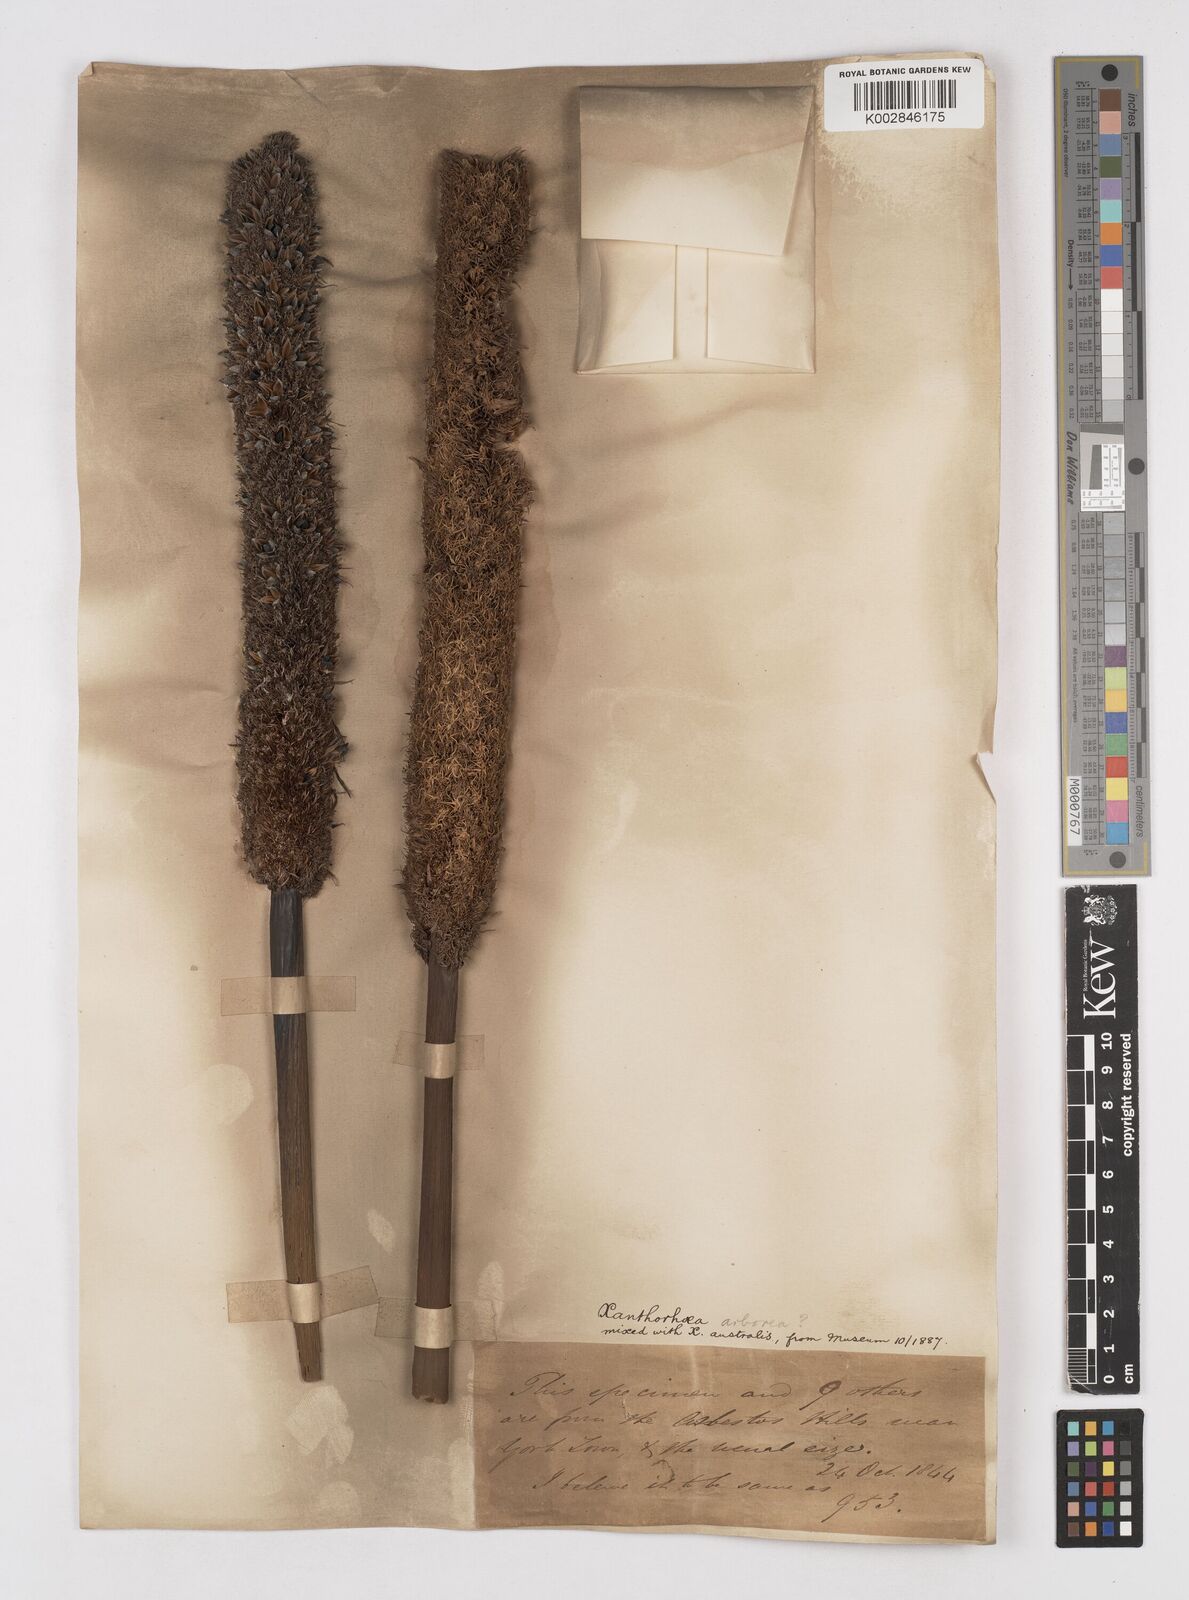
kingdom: Plantae
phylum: Tracheophyta
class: Liliopsida
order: Asparagales
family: Asphodelaceae
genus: Xanthorrhoea
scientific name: Xanthorrhoea arborea
